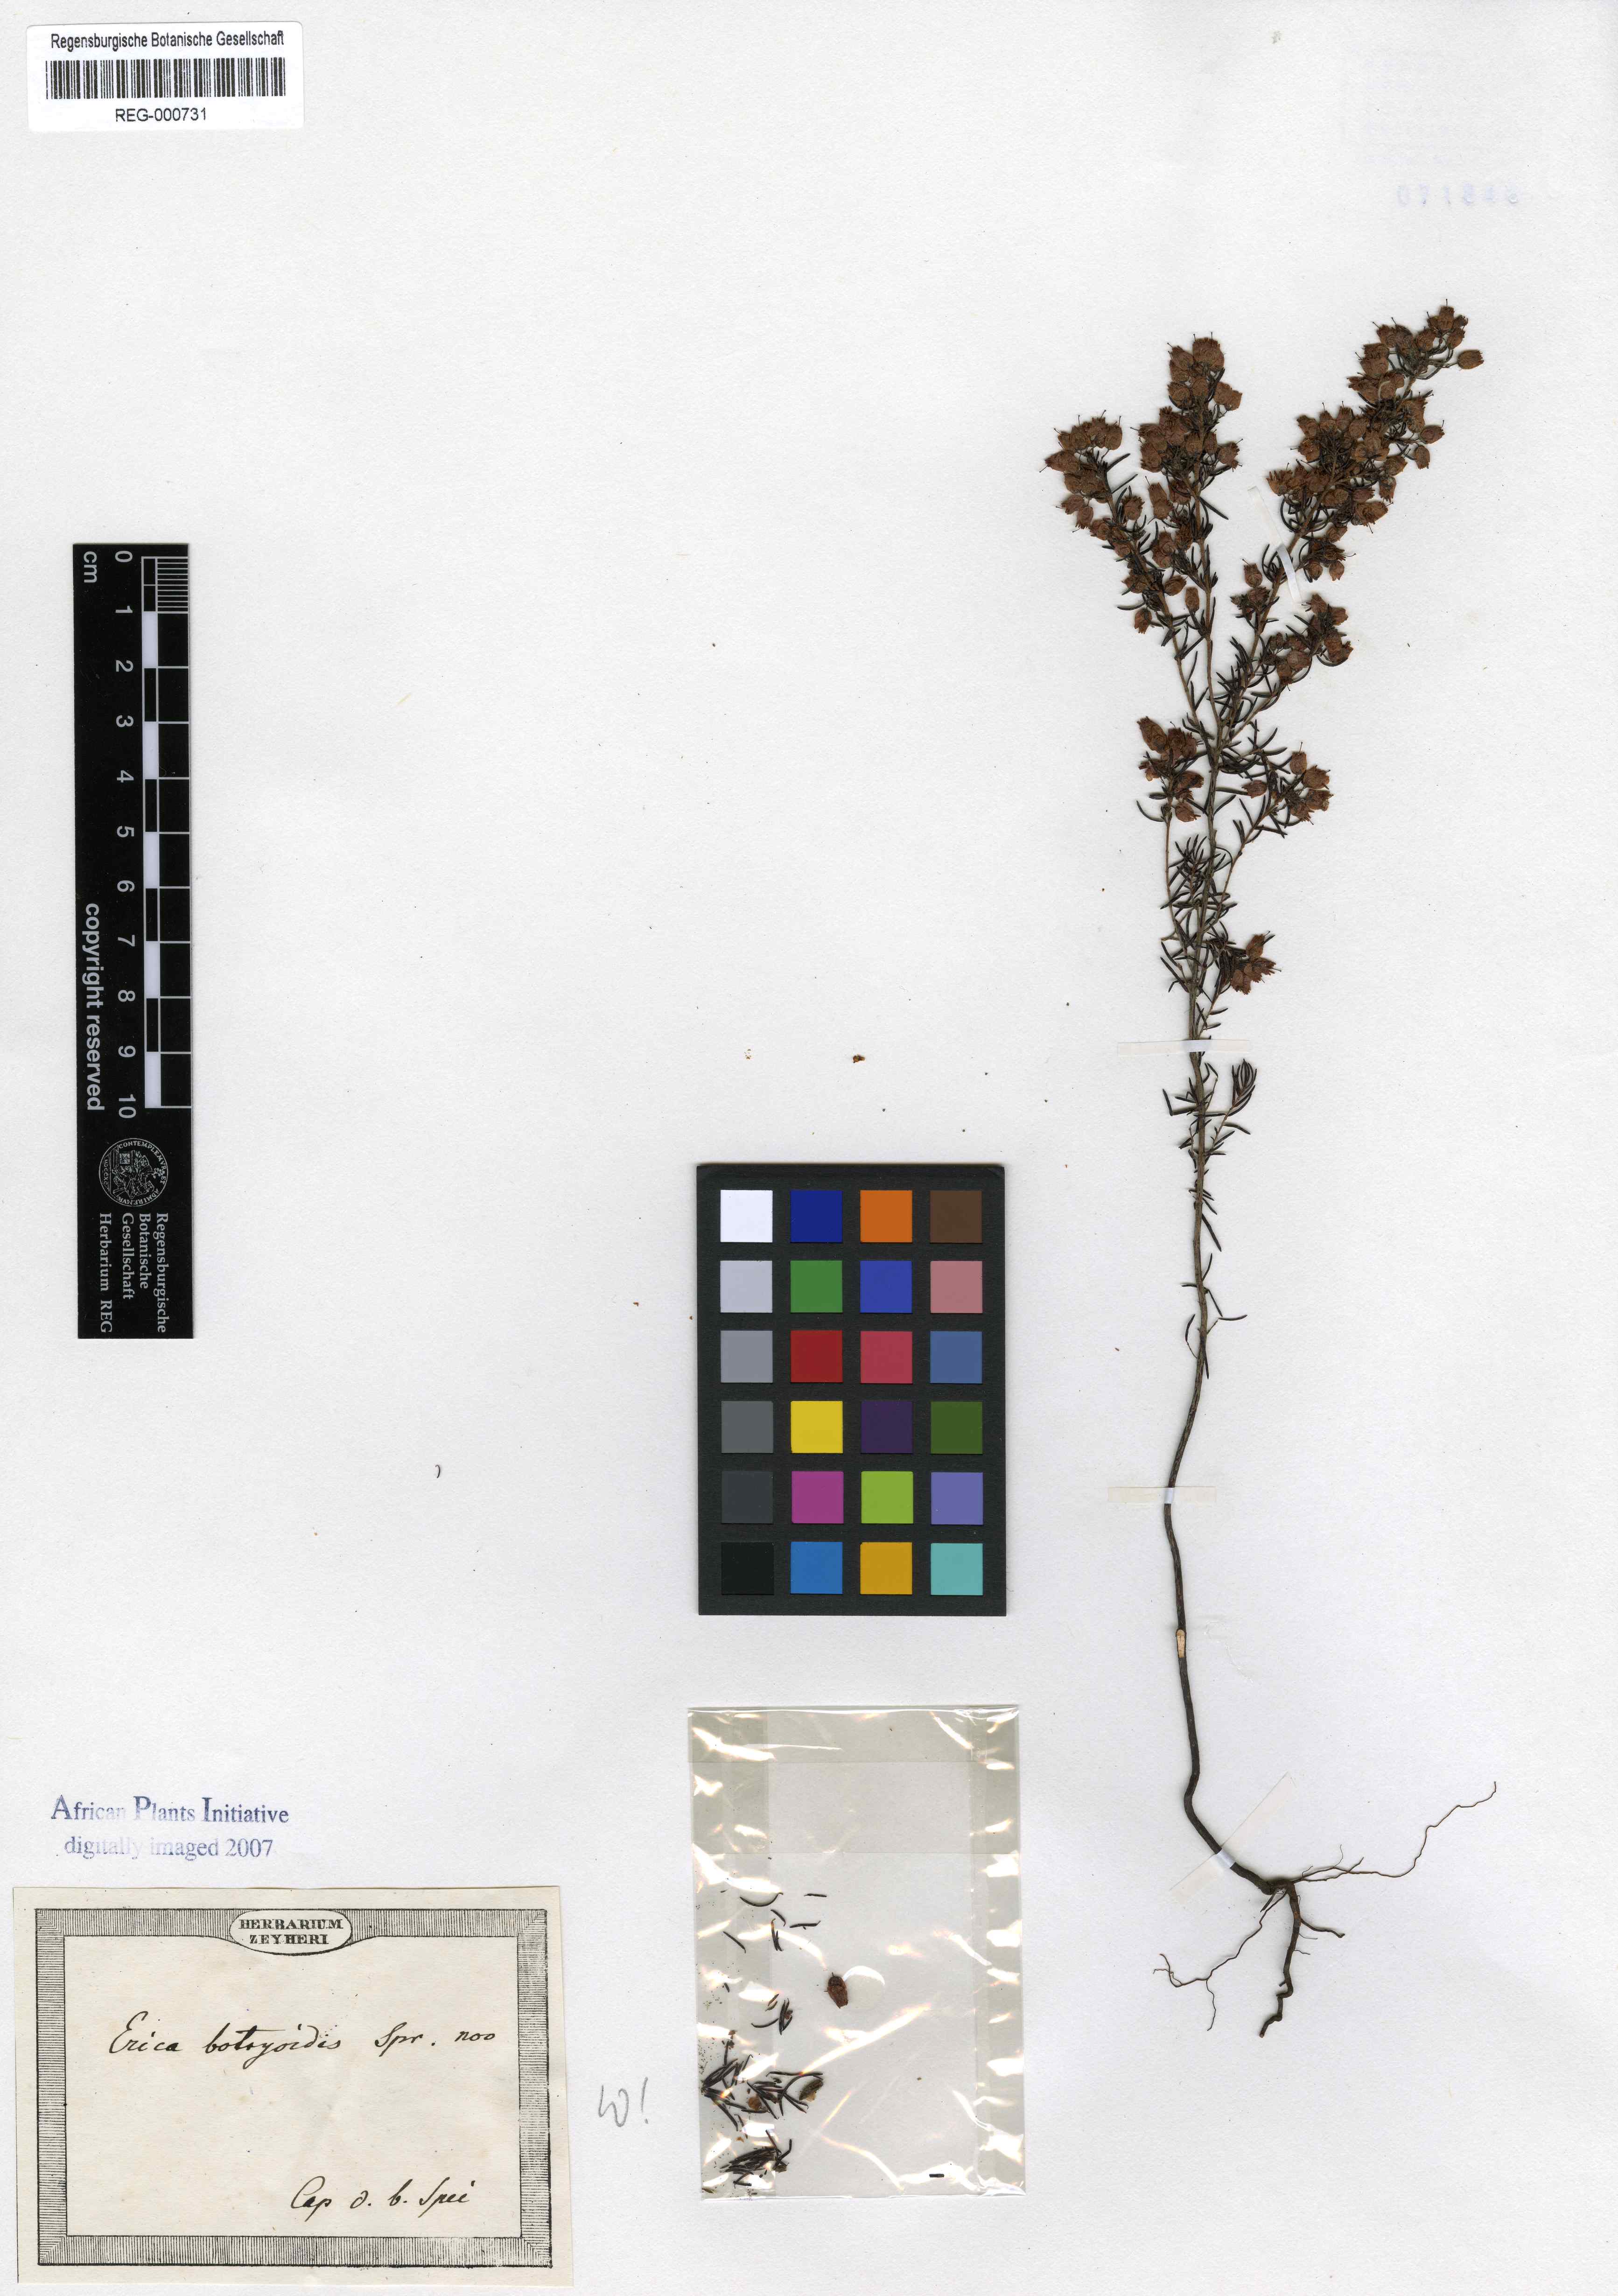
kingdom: Plantae
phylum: Tracheophyta
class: Magnoliopsida
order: Ericales
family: Ericaceae
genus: Erica
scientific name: Erica botryoides
